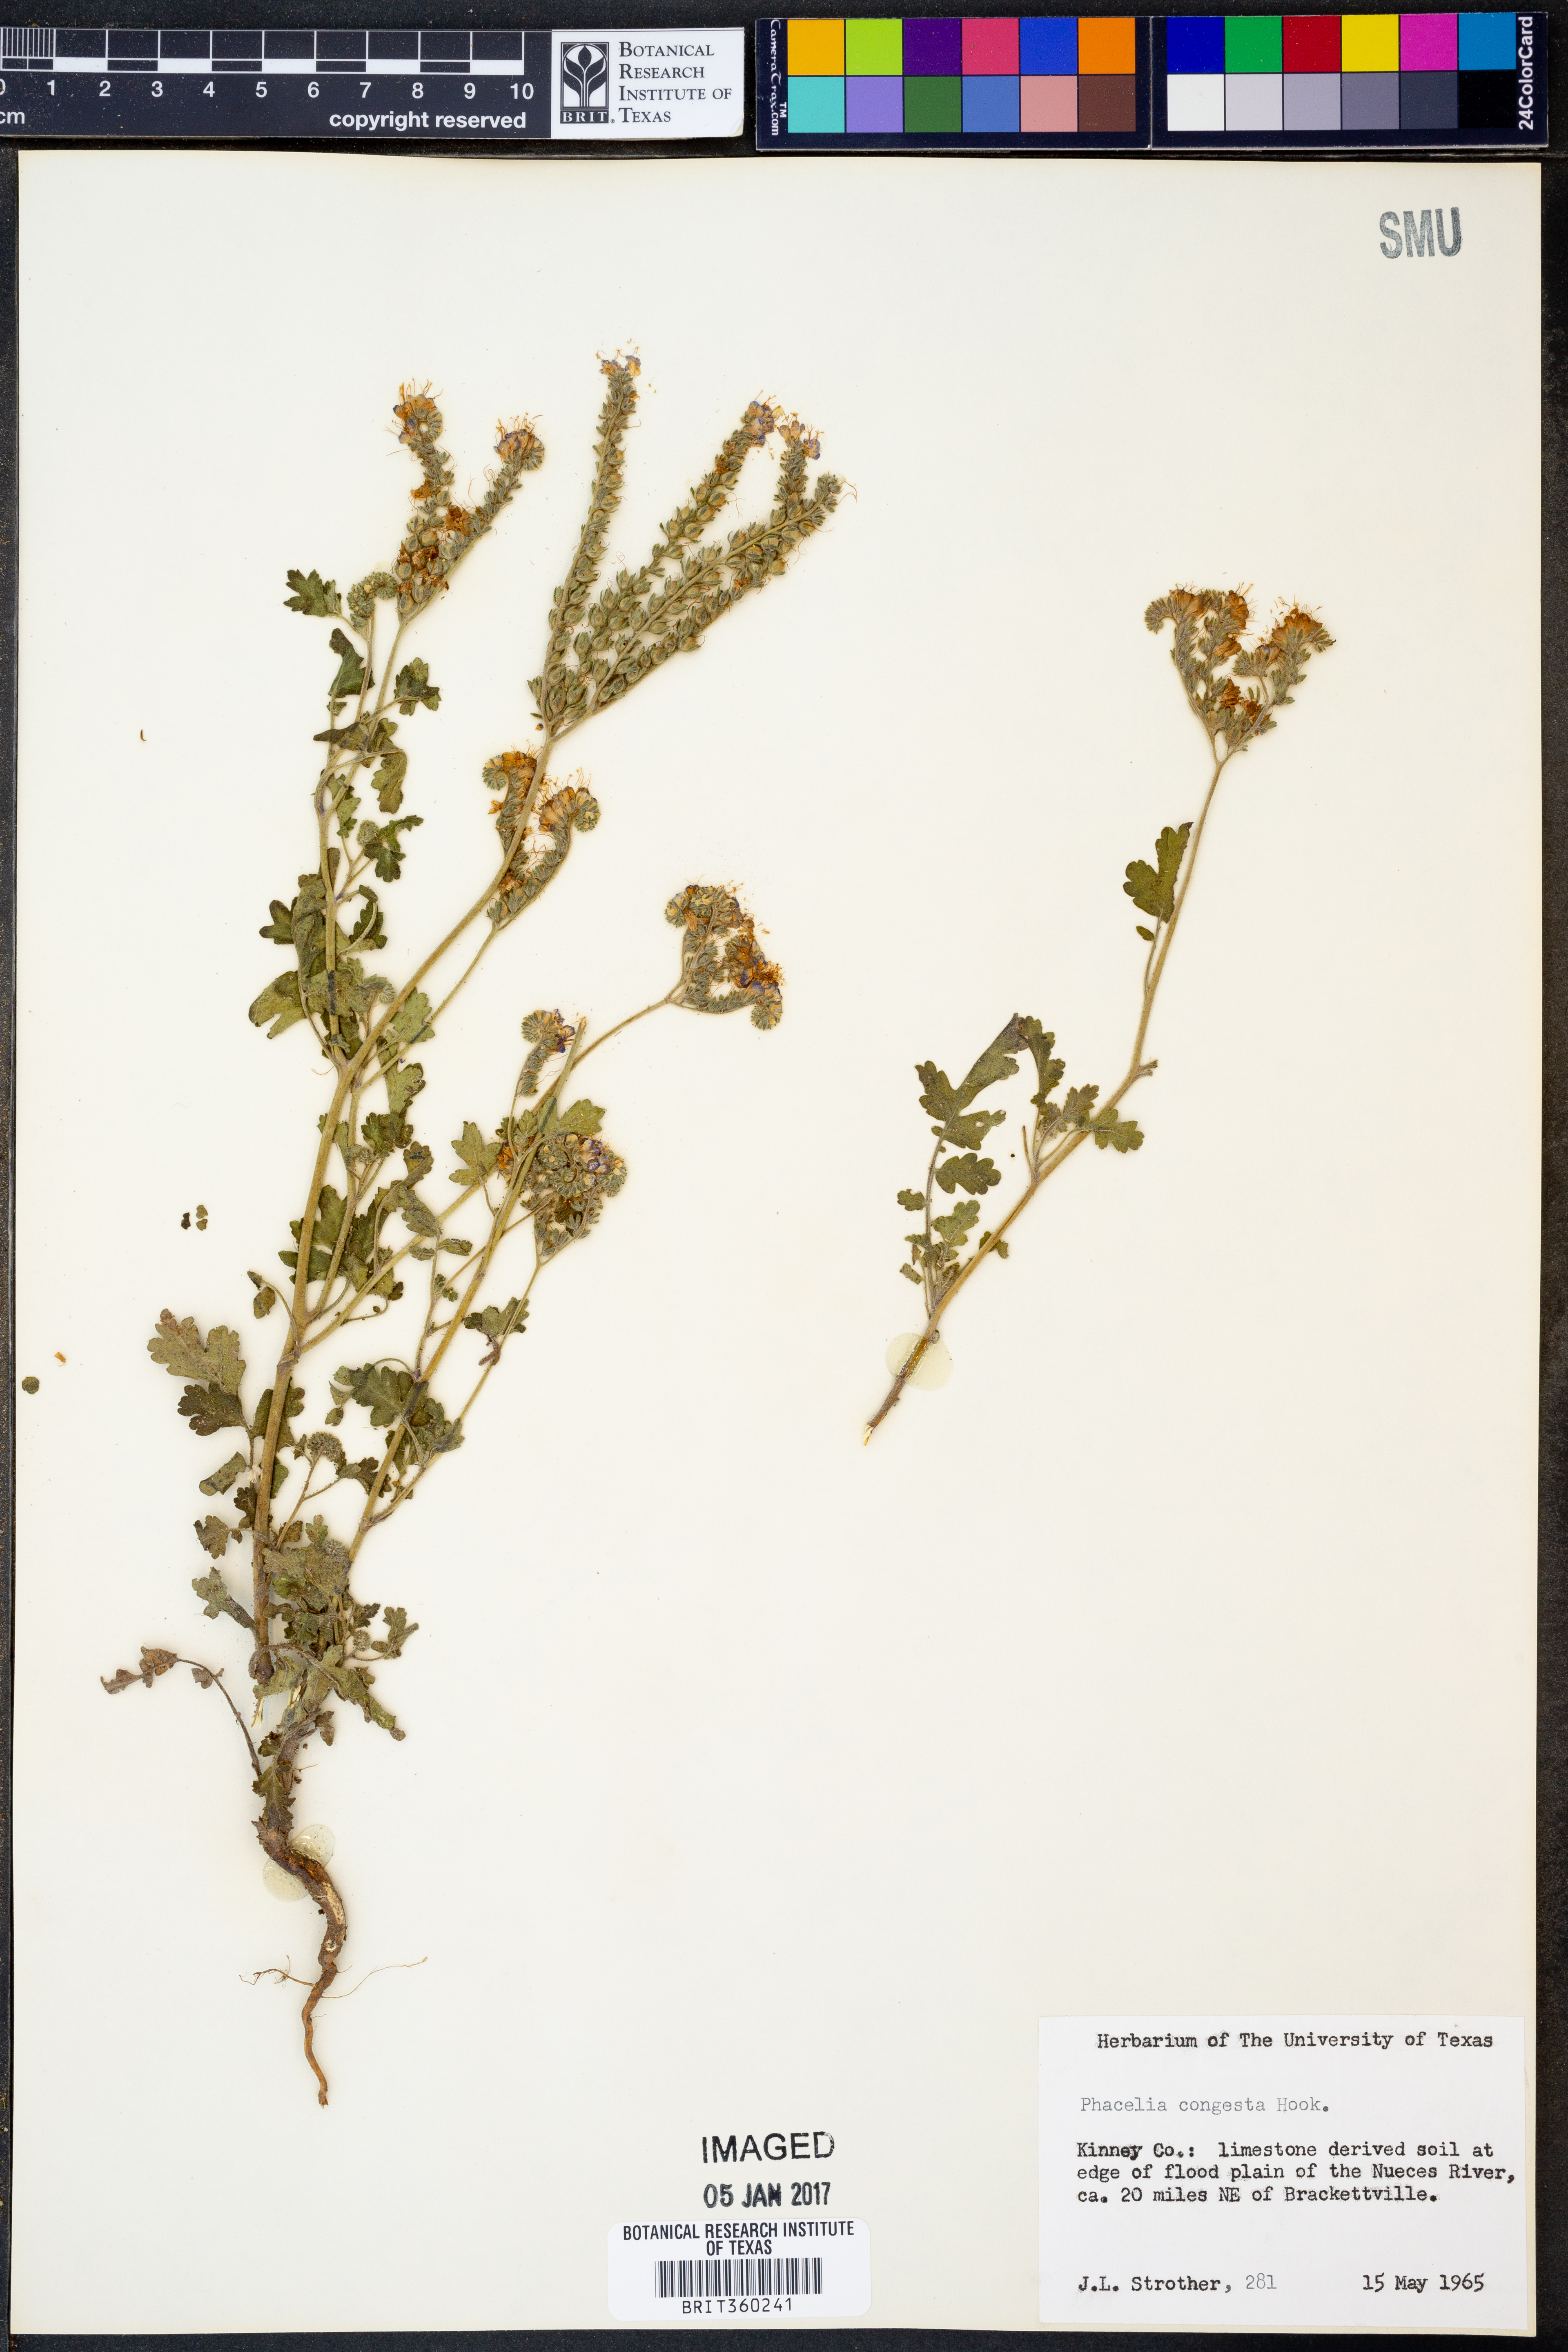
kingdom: Plantae
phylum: Tracheophyta
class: Magnoliopsida
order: Boraginales
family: Hydrophyllaceae
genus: Phacelia
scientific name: Phacelia congesta
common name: Blue curls
